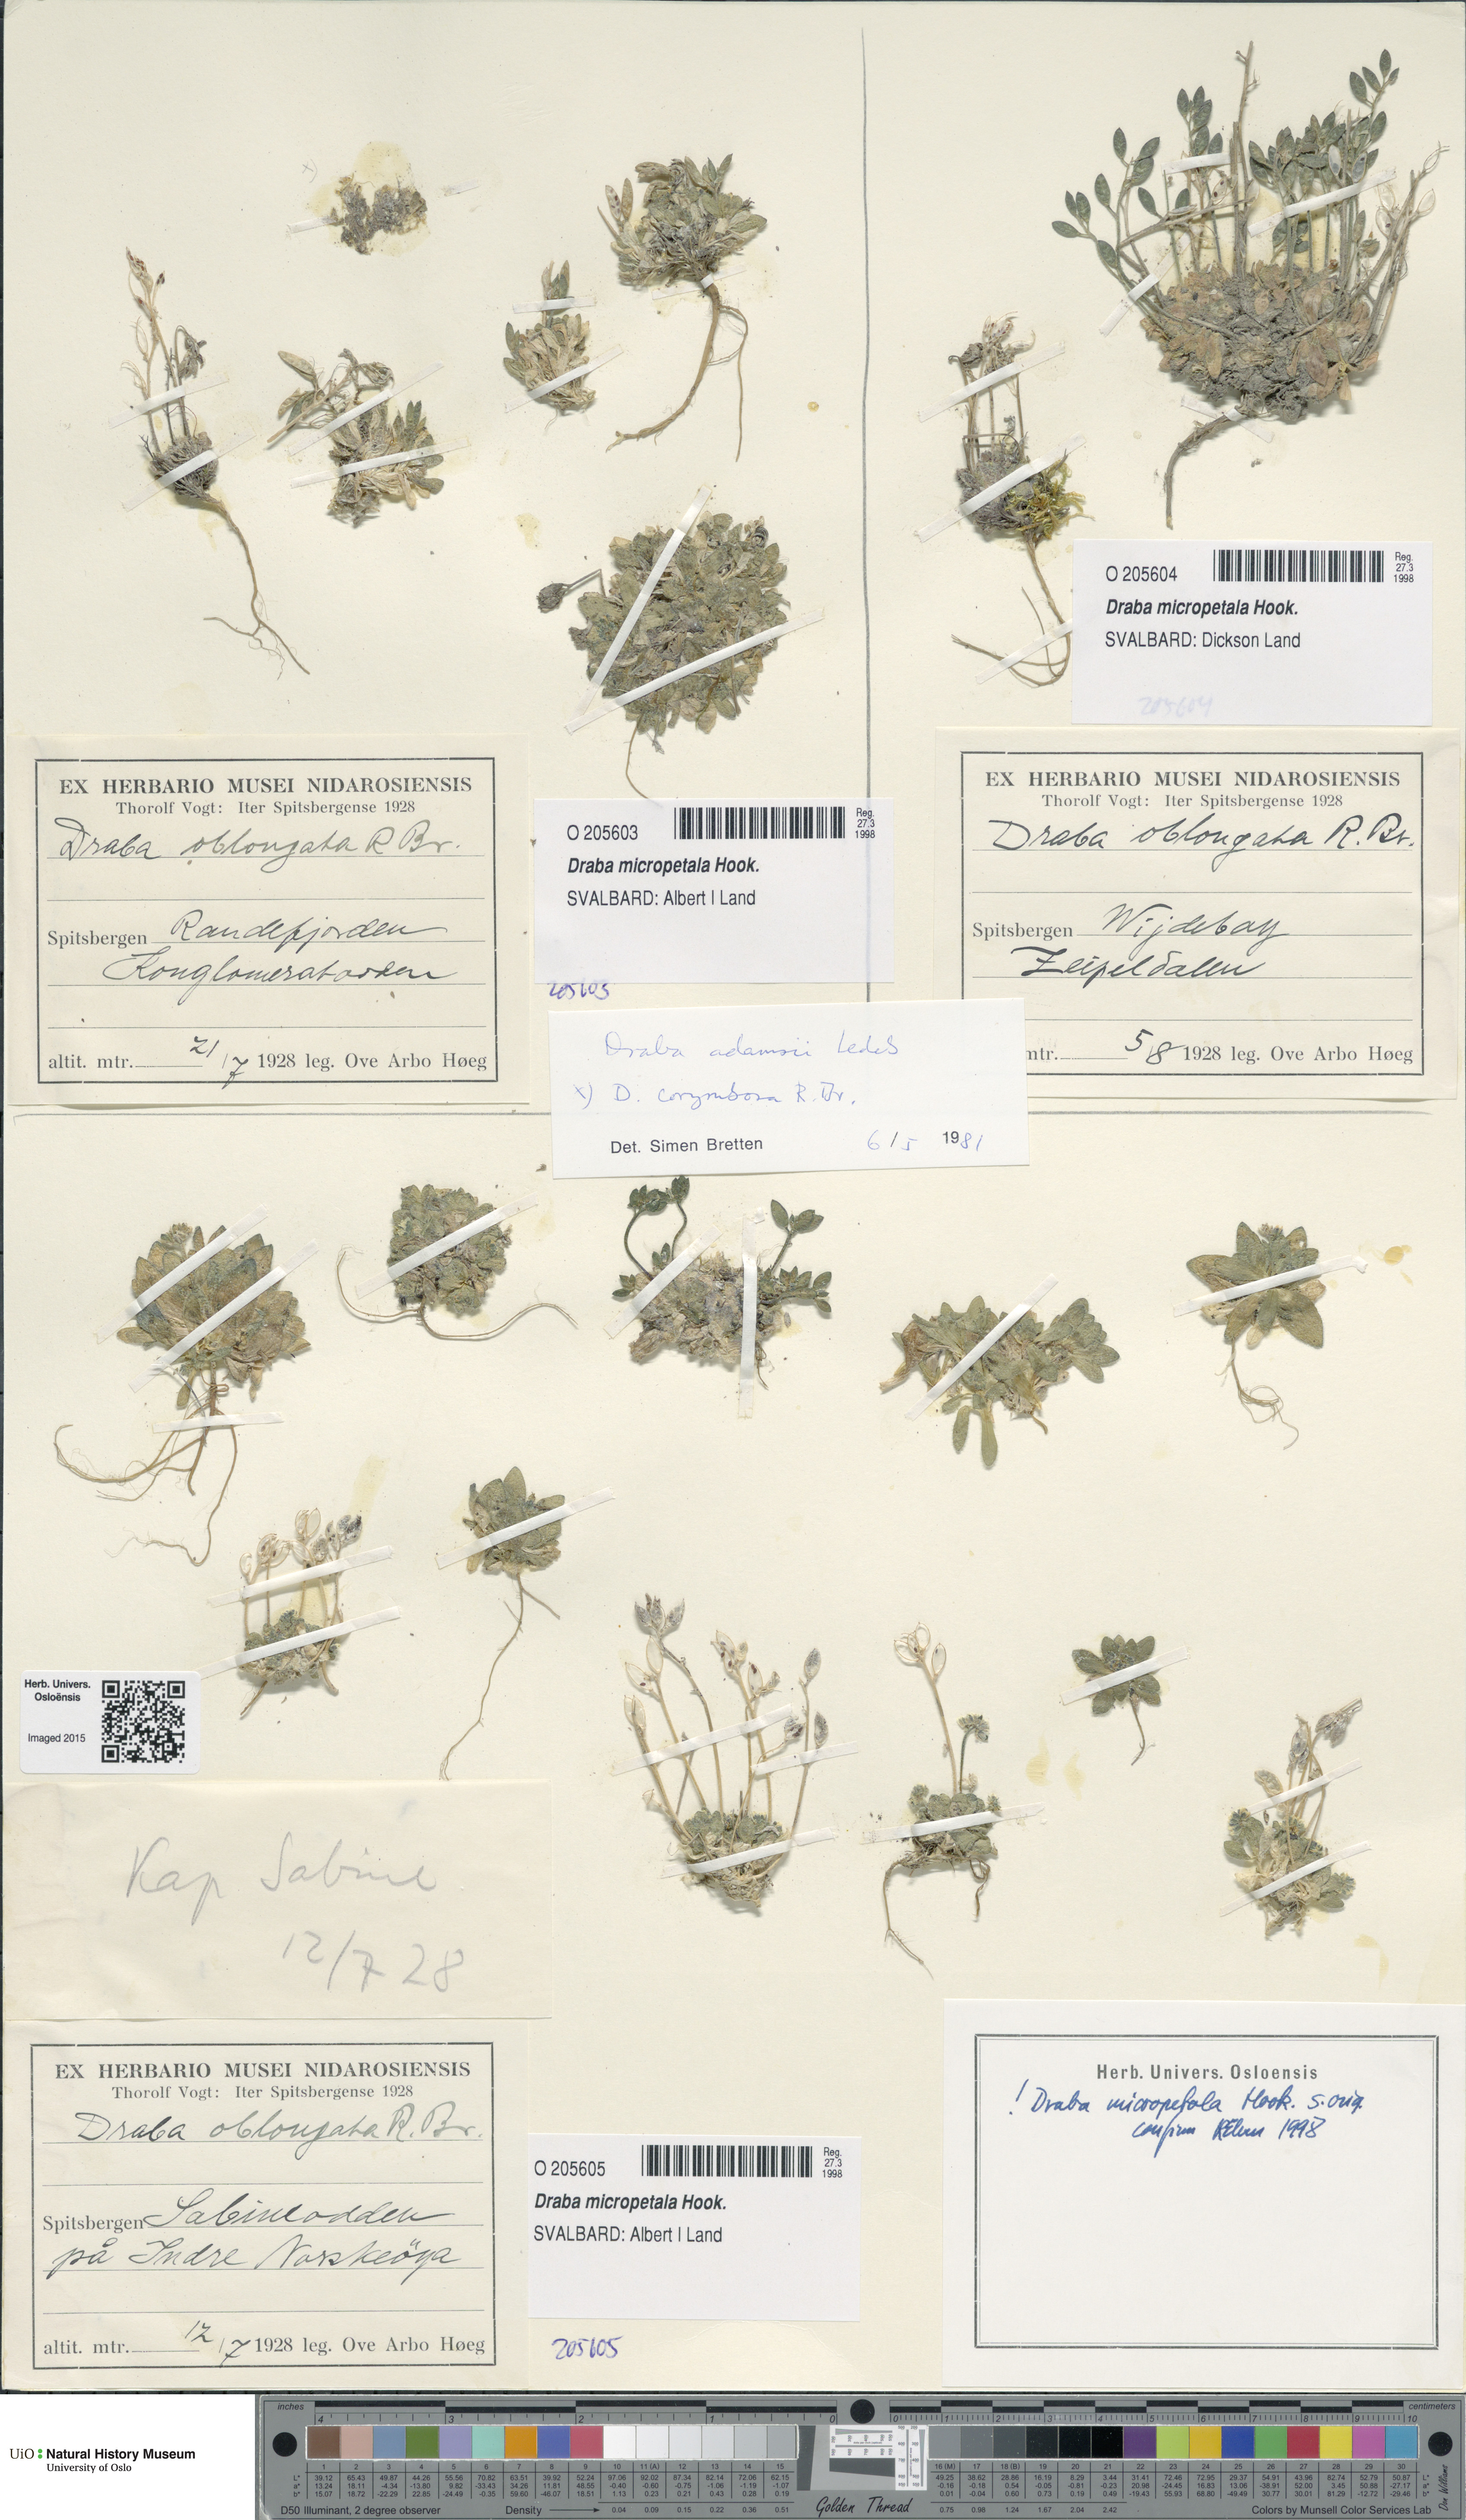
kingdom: Plantae
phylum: Tracheophyta
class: Magnoliopsida
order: Brassicales
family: Brassicaceae
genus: Draba
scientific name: Draba micropetala
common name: Small-flowered draba
